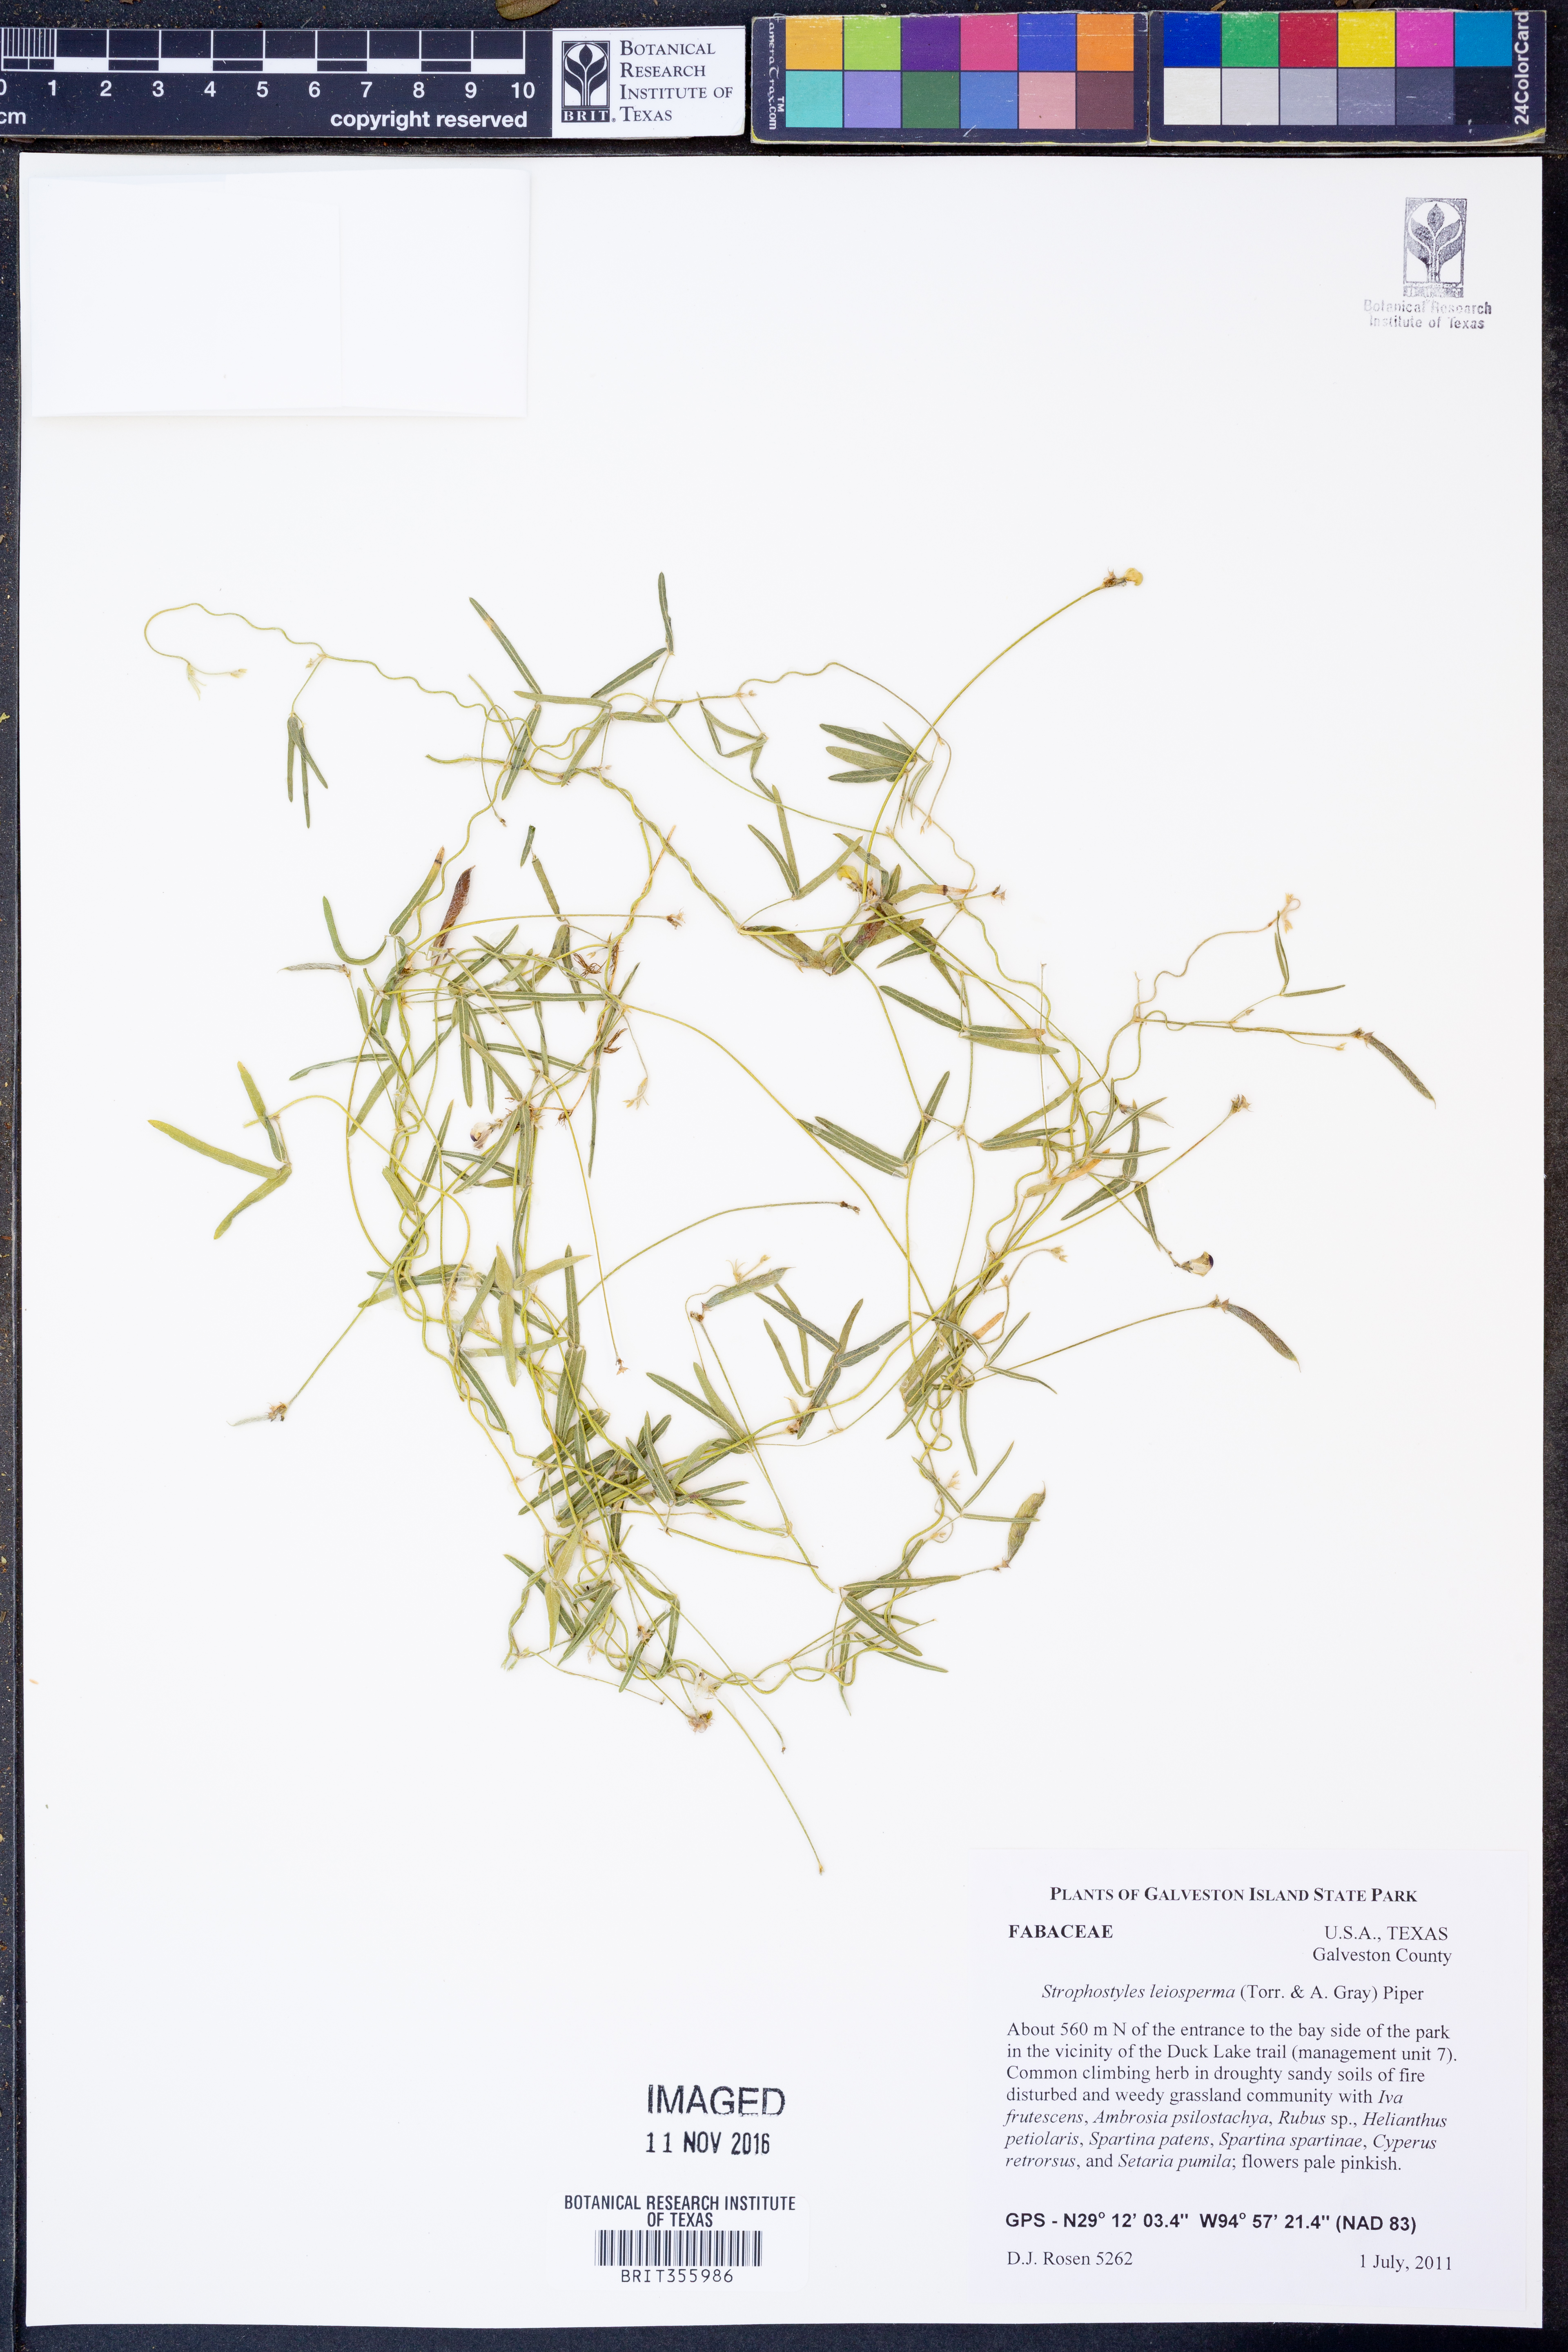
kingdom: Plantae
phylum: Tracheophyta
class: Magnoliopsida
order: Fabales
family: Fabaceae
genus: Strophostyles
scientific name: Strophostyles leiosperma
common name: Smooth-seed wild bean
